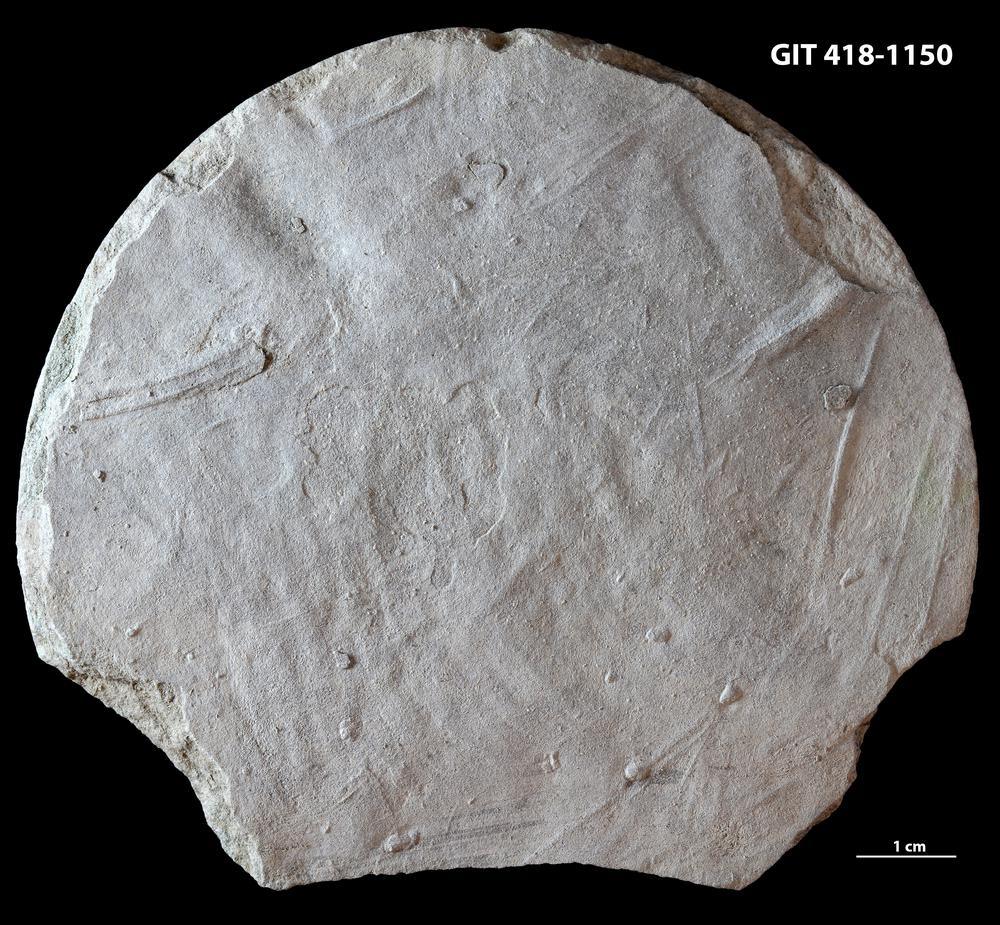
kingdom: Animalia
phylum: Arthropoda
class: Trilobita
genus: Monomorphichnus
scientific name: Monomorphichnus
